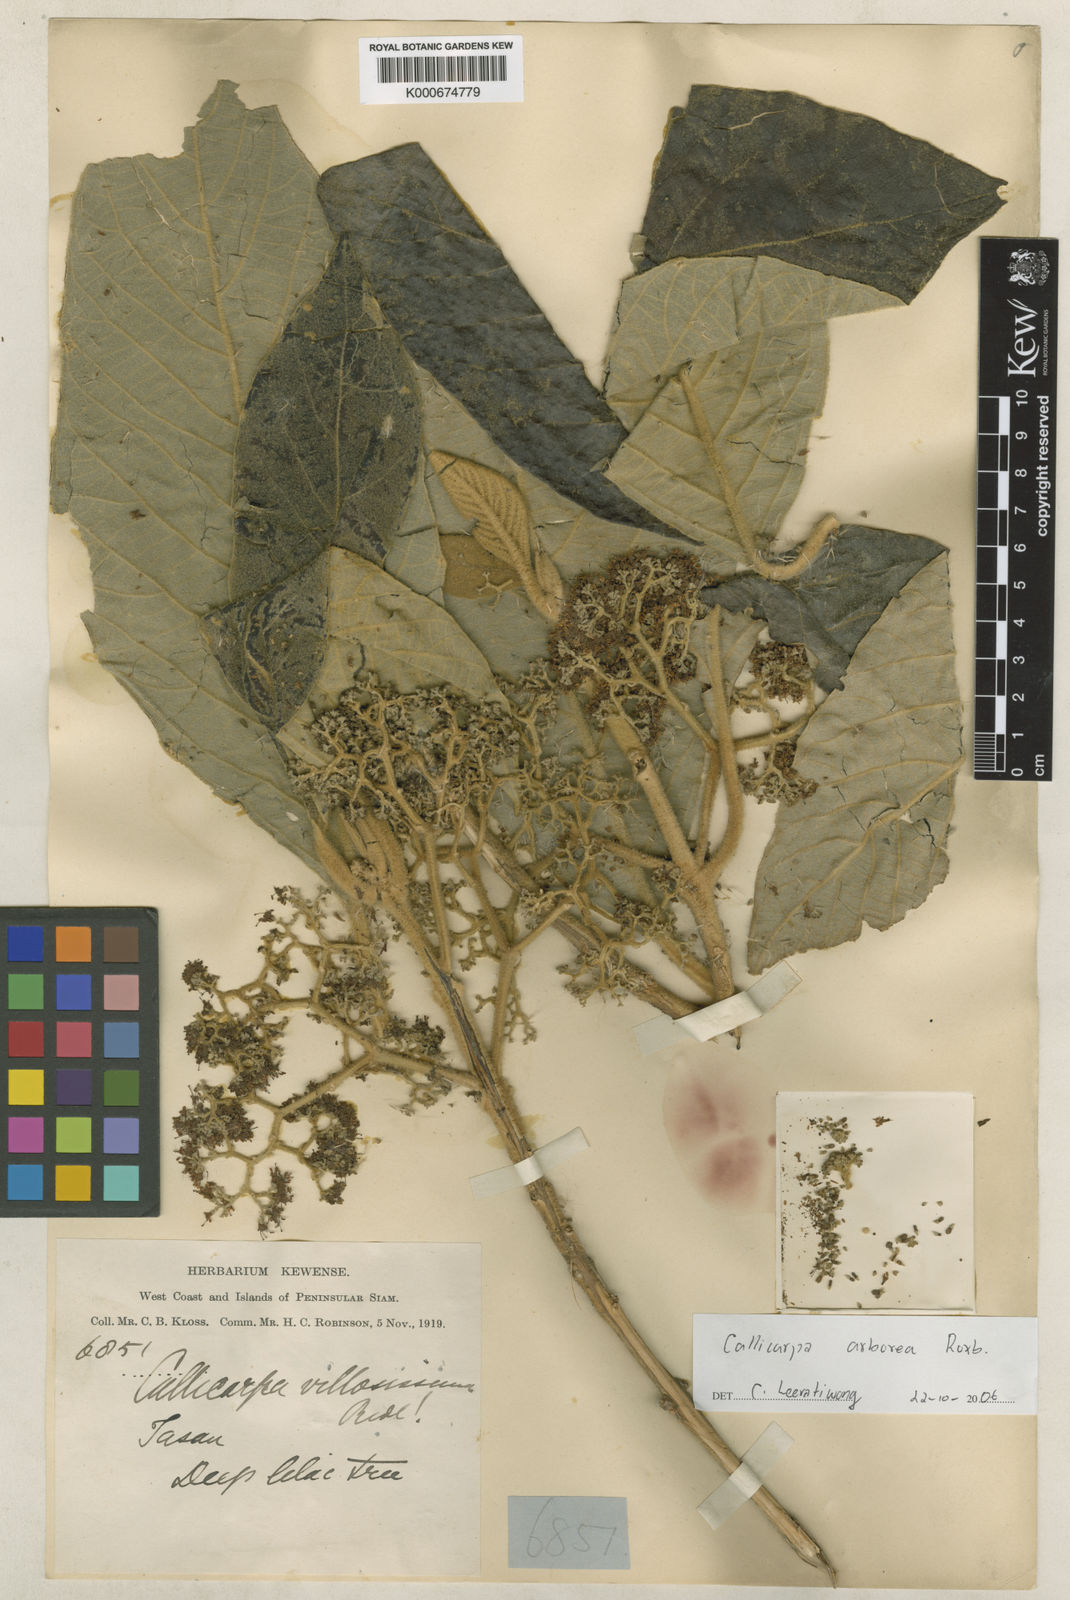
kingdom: Plantae
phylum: Tracheophyta
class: Magnoliopsida
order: Lamiales
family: Lamiaceae
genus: Callicarpa
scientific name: Callicarpa arborea
